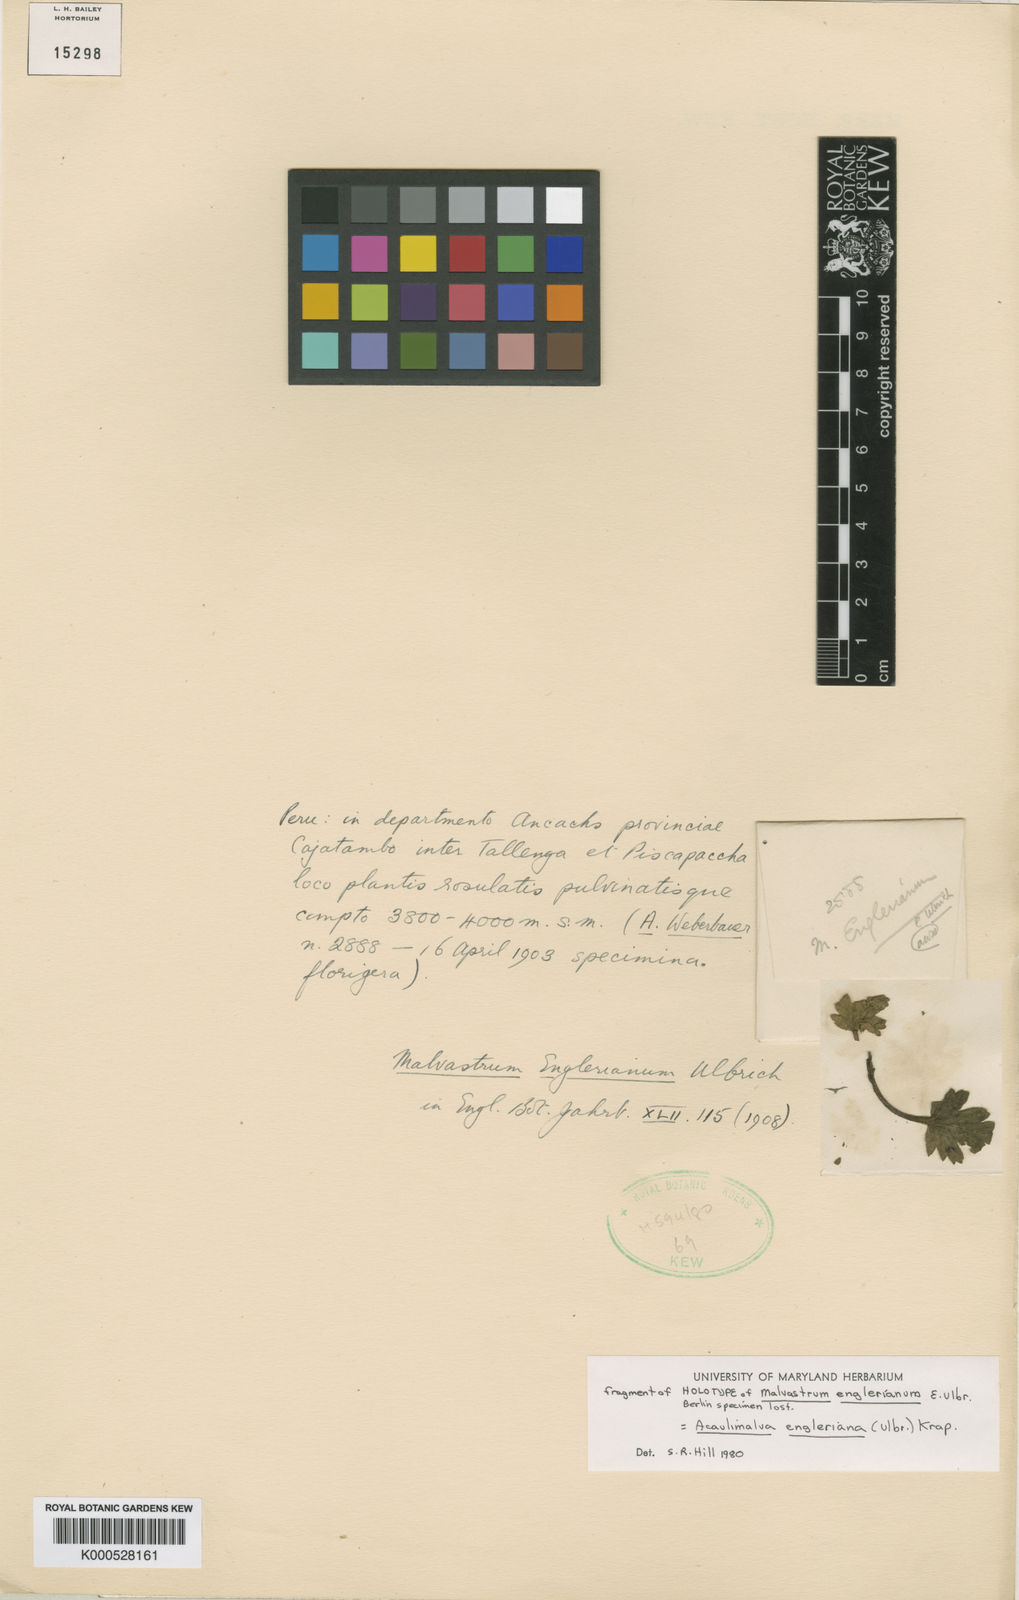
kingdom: Plantae
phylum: Tracheophyta
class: Magnoliopsida
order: Malvales
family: Malvaceae
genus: Acaulimalva
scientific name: Acaulimalva engleriana
